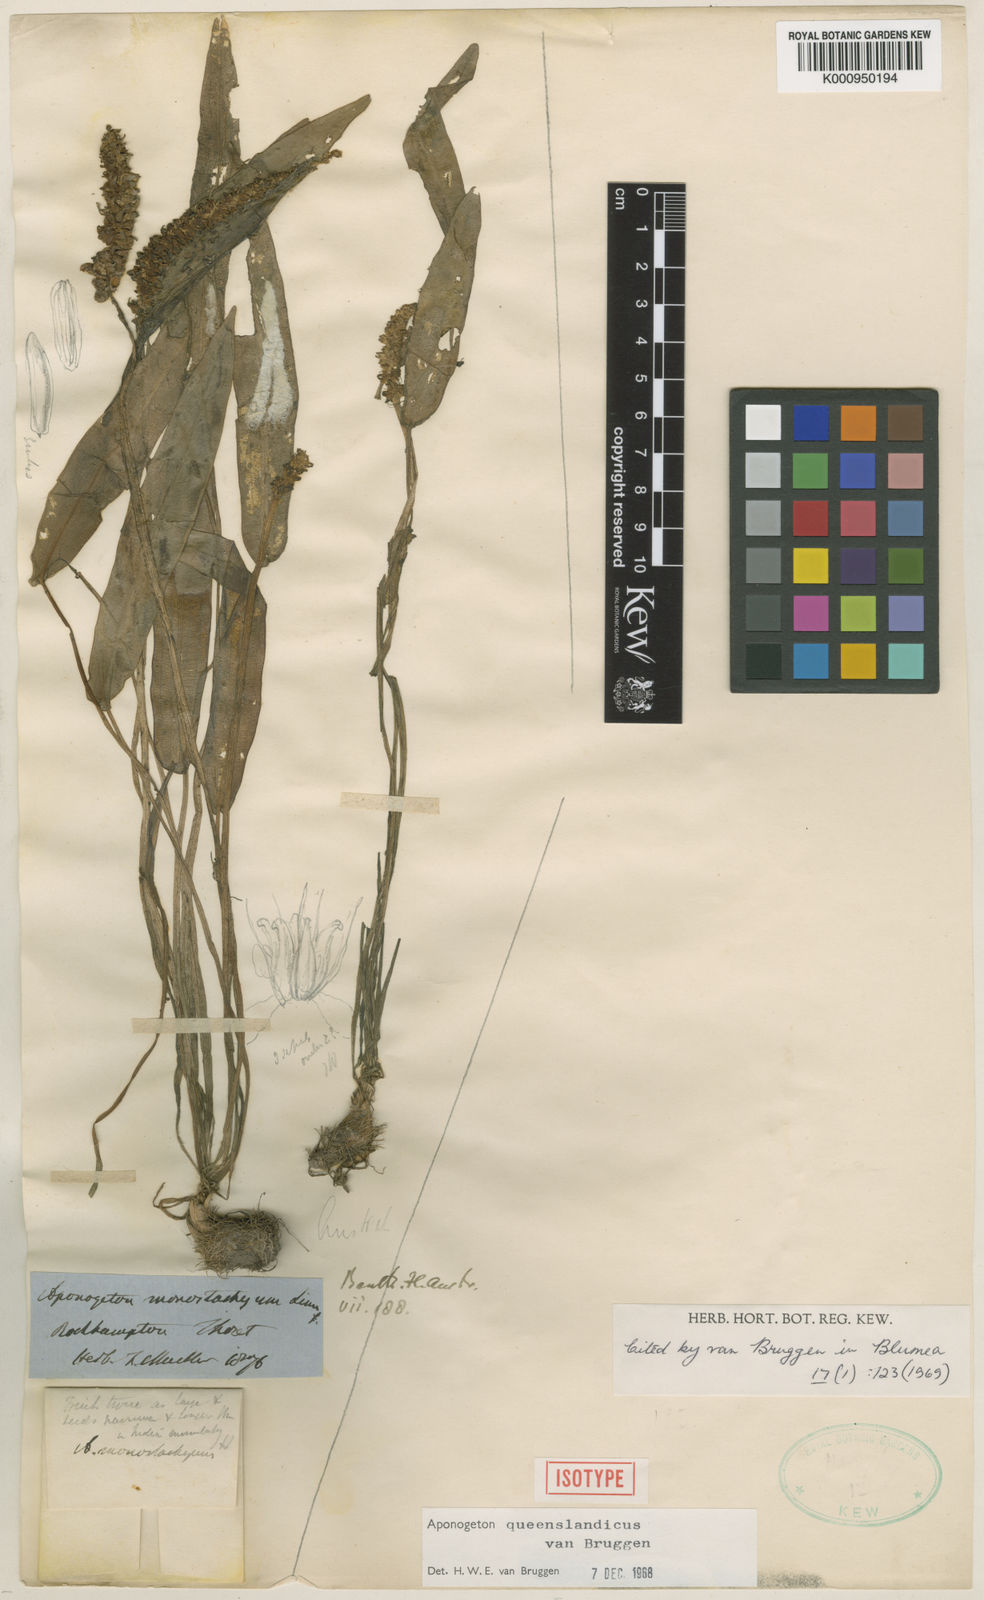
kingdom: Plantae
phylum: Tracheophyta
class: Liliopsida
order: Alismatales
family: Aponogetonaceae
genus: Aponogeton
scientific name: Aponogeton queenslandicus
